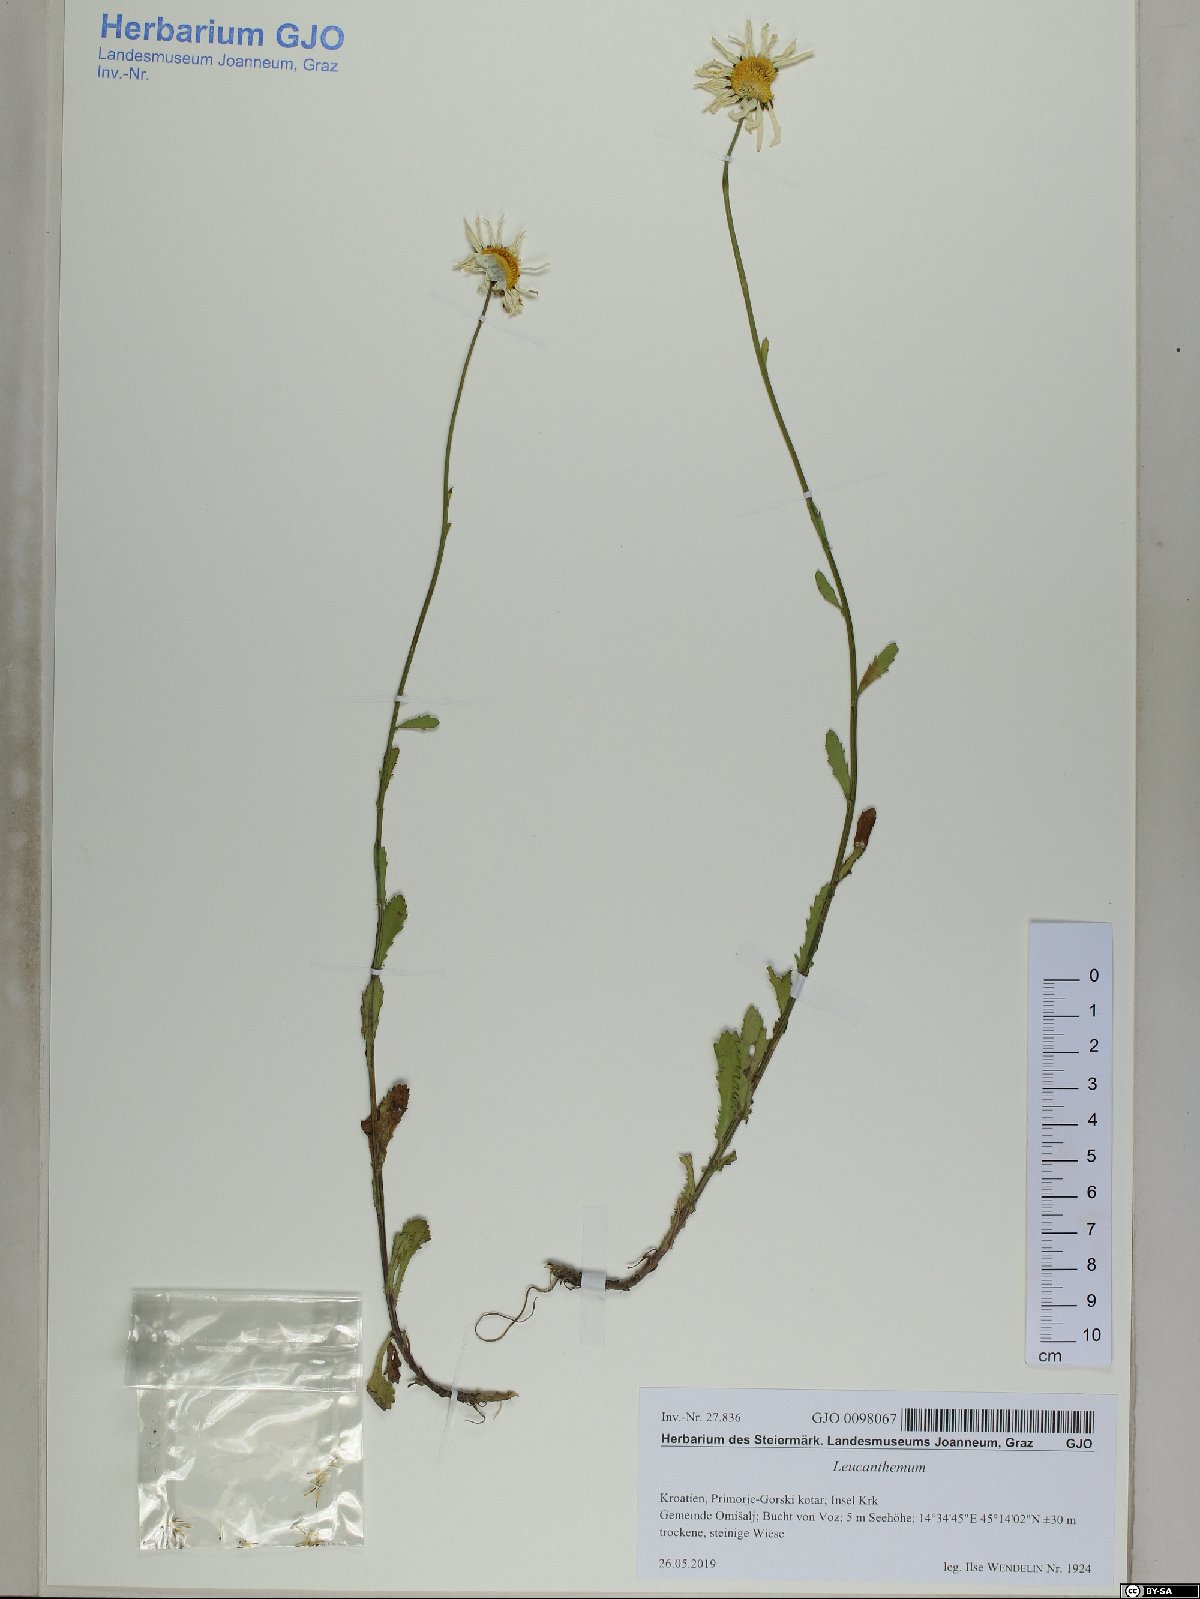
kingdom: Plantae
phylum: Tracheophyta
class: Magnoliopsida
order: Asterales
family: Asteraceae
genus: Leucanthemum
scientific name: Leucanthemum ircutianum
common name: Daisy
